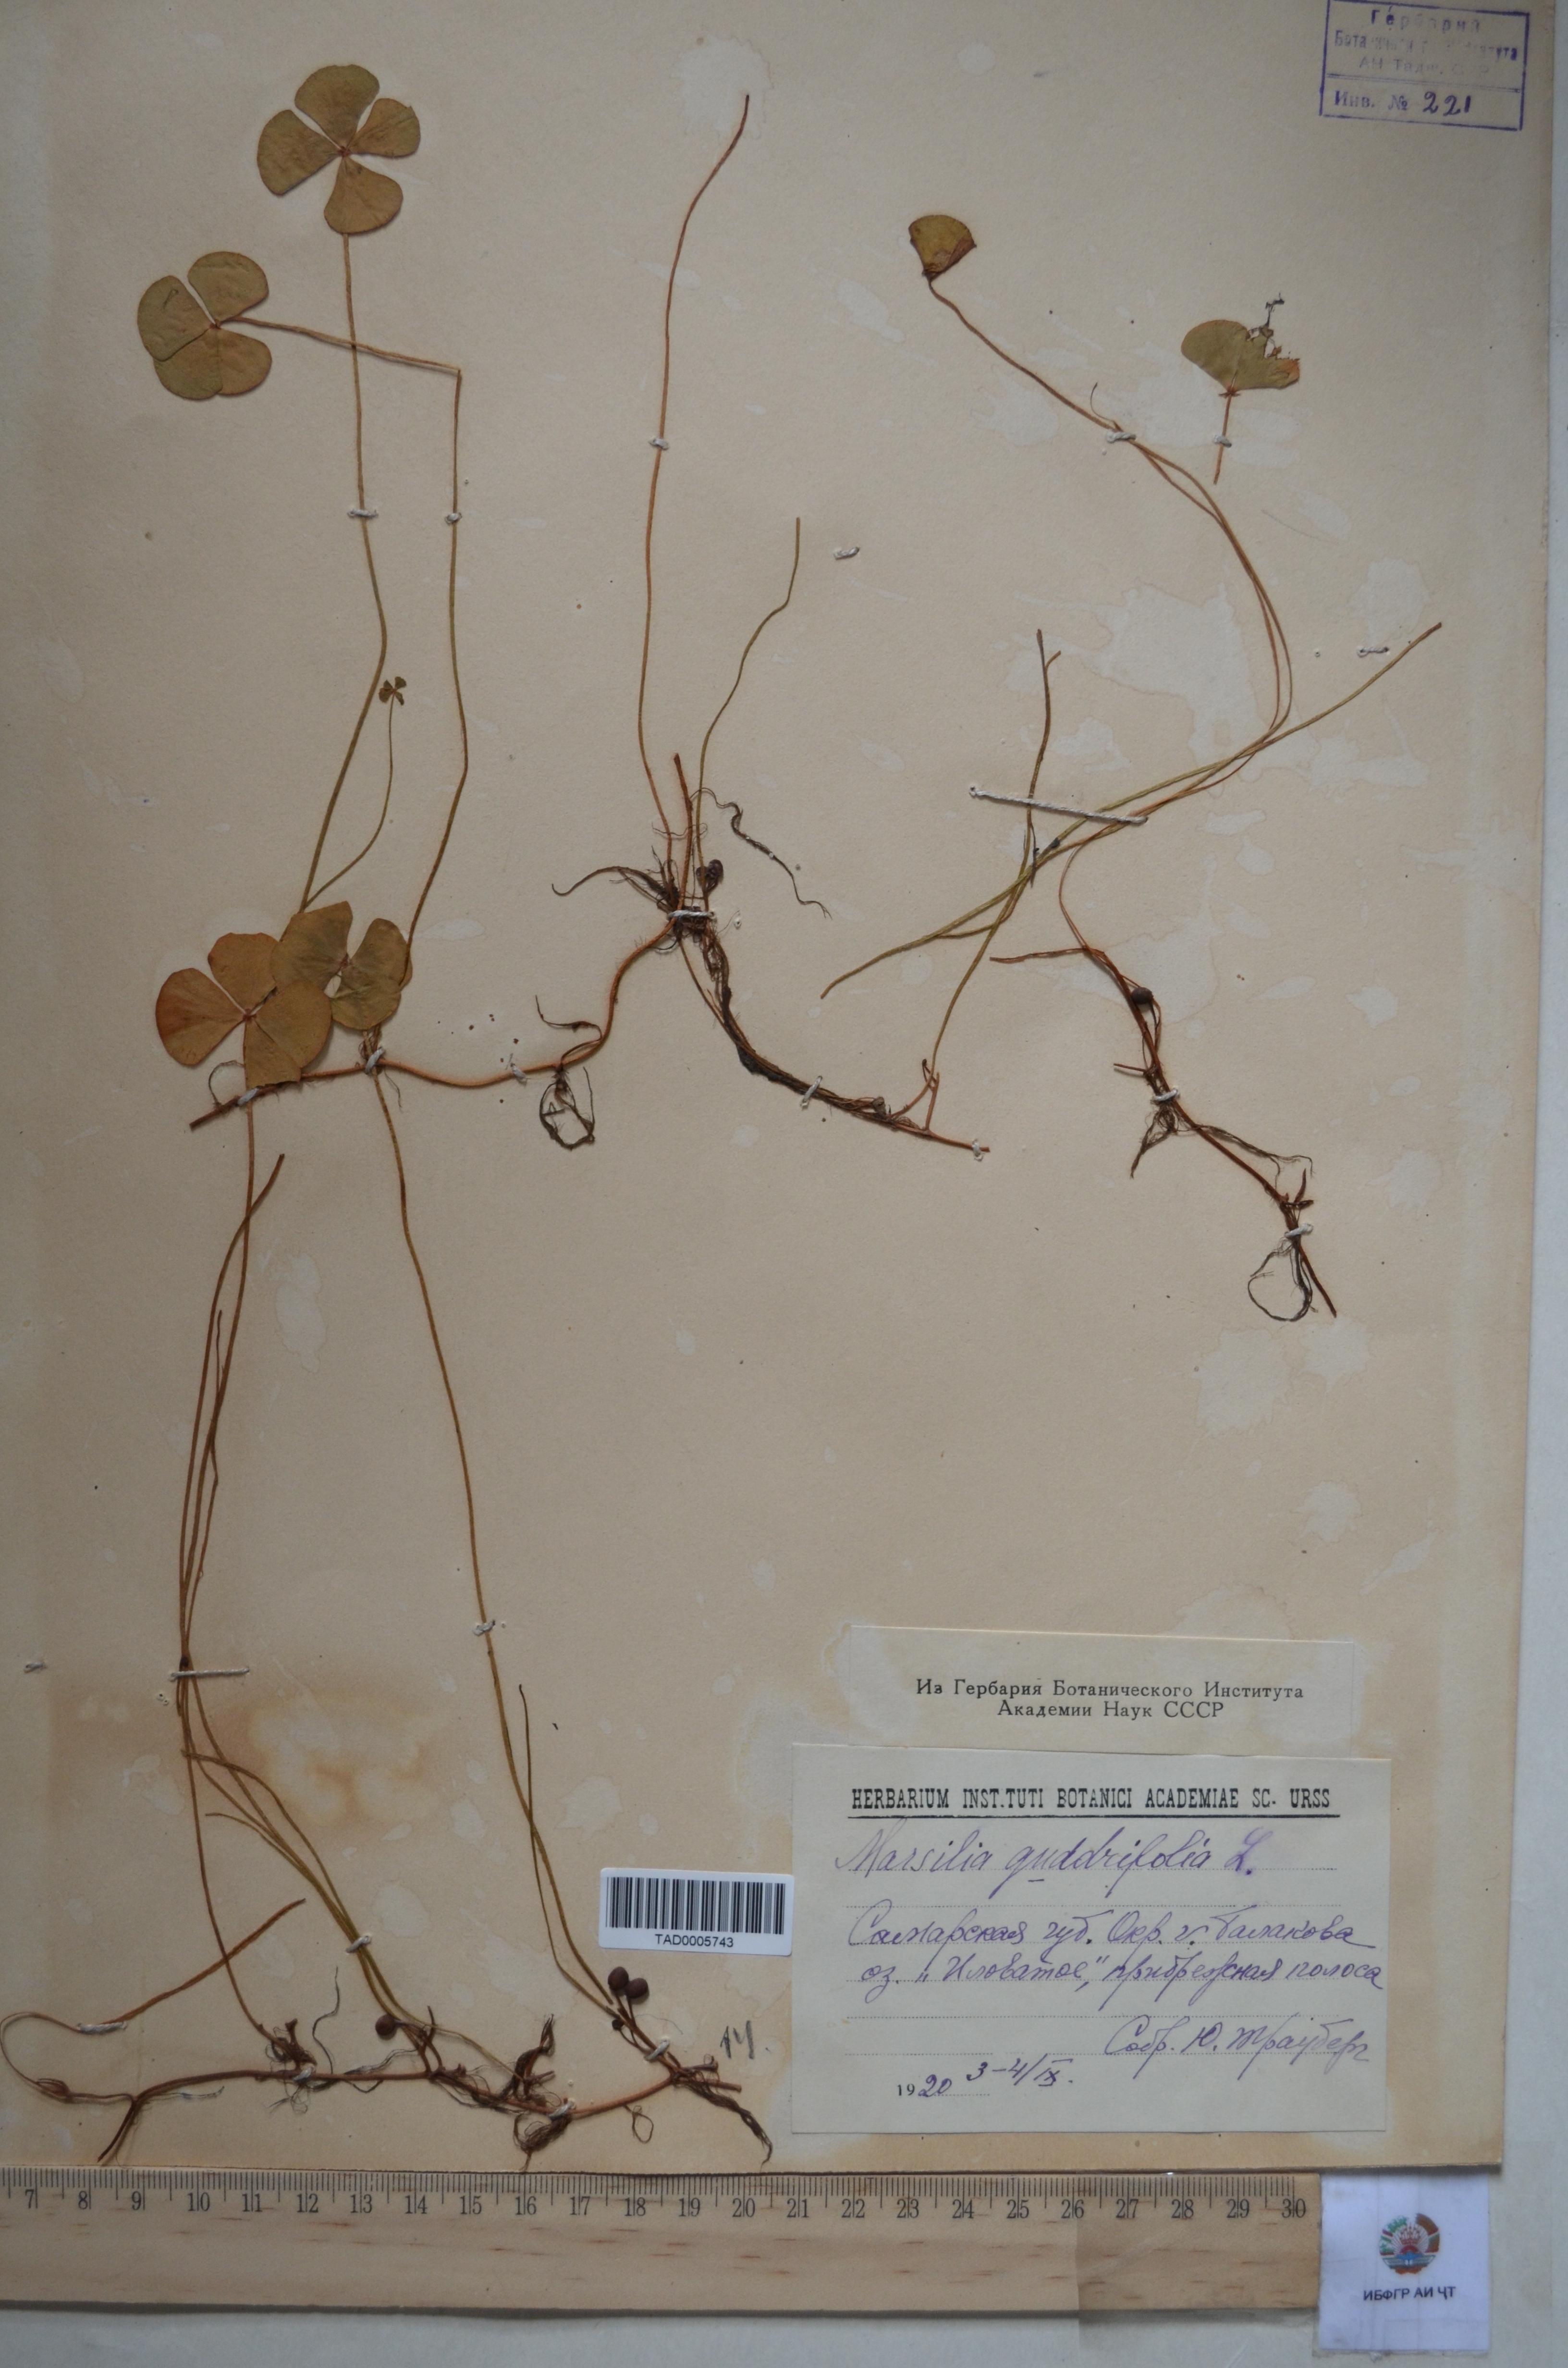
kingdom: Plantae
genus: Marsilaea
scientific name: Marsilaea
